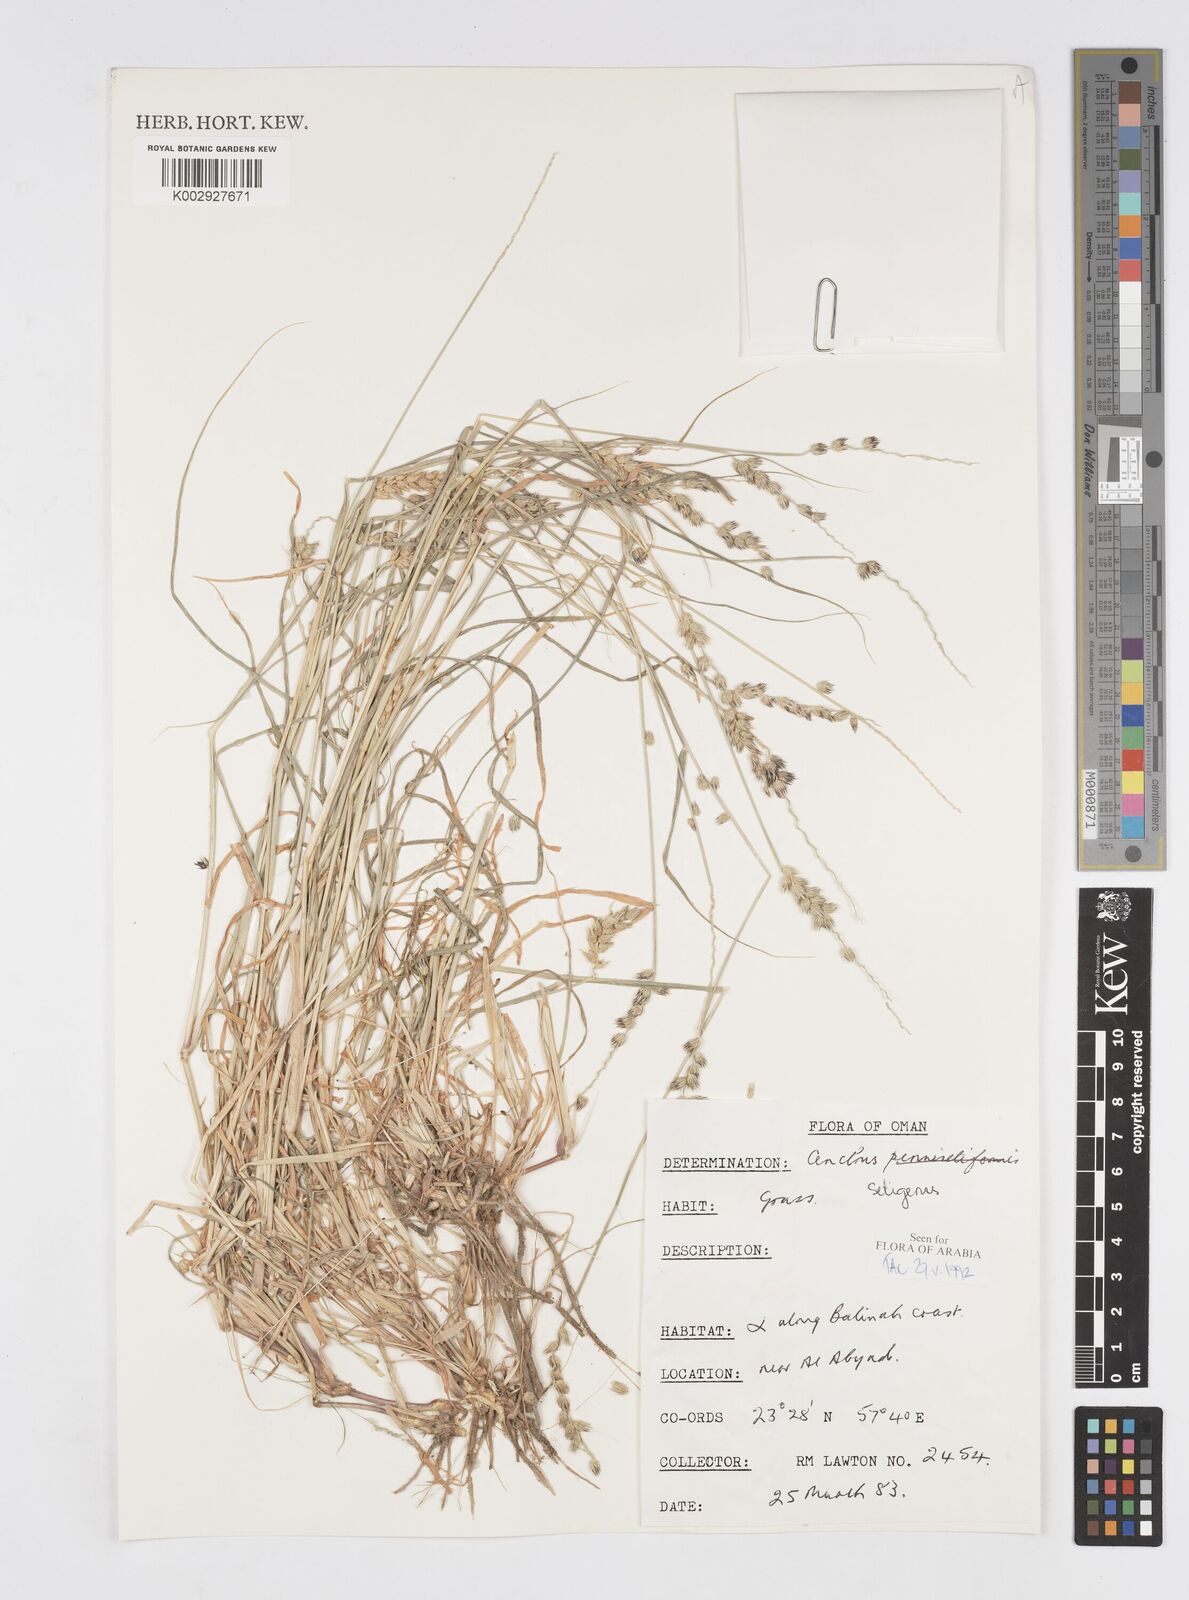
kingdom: Plantae
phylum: Tracheophyta
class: Liliopsida
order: Poales
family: Poaceae
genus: Cenchrus
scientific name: Cenchrus setigerus
